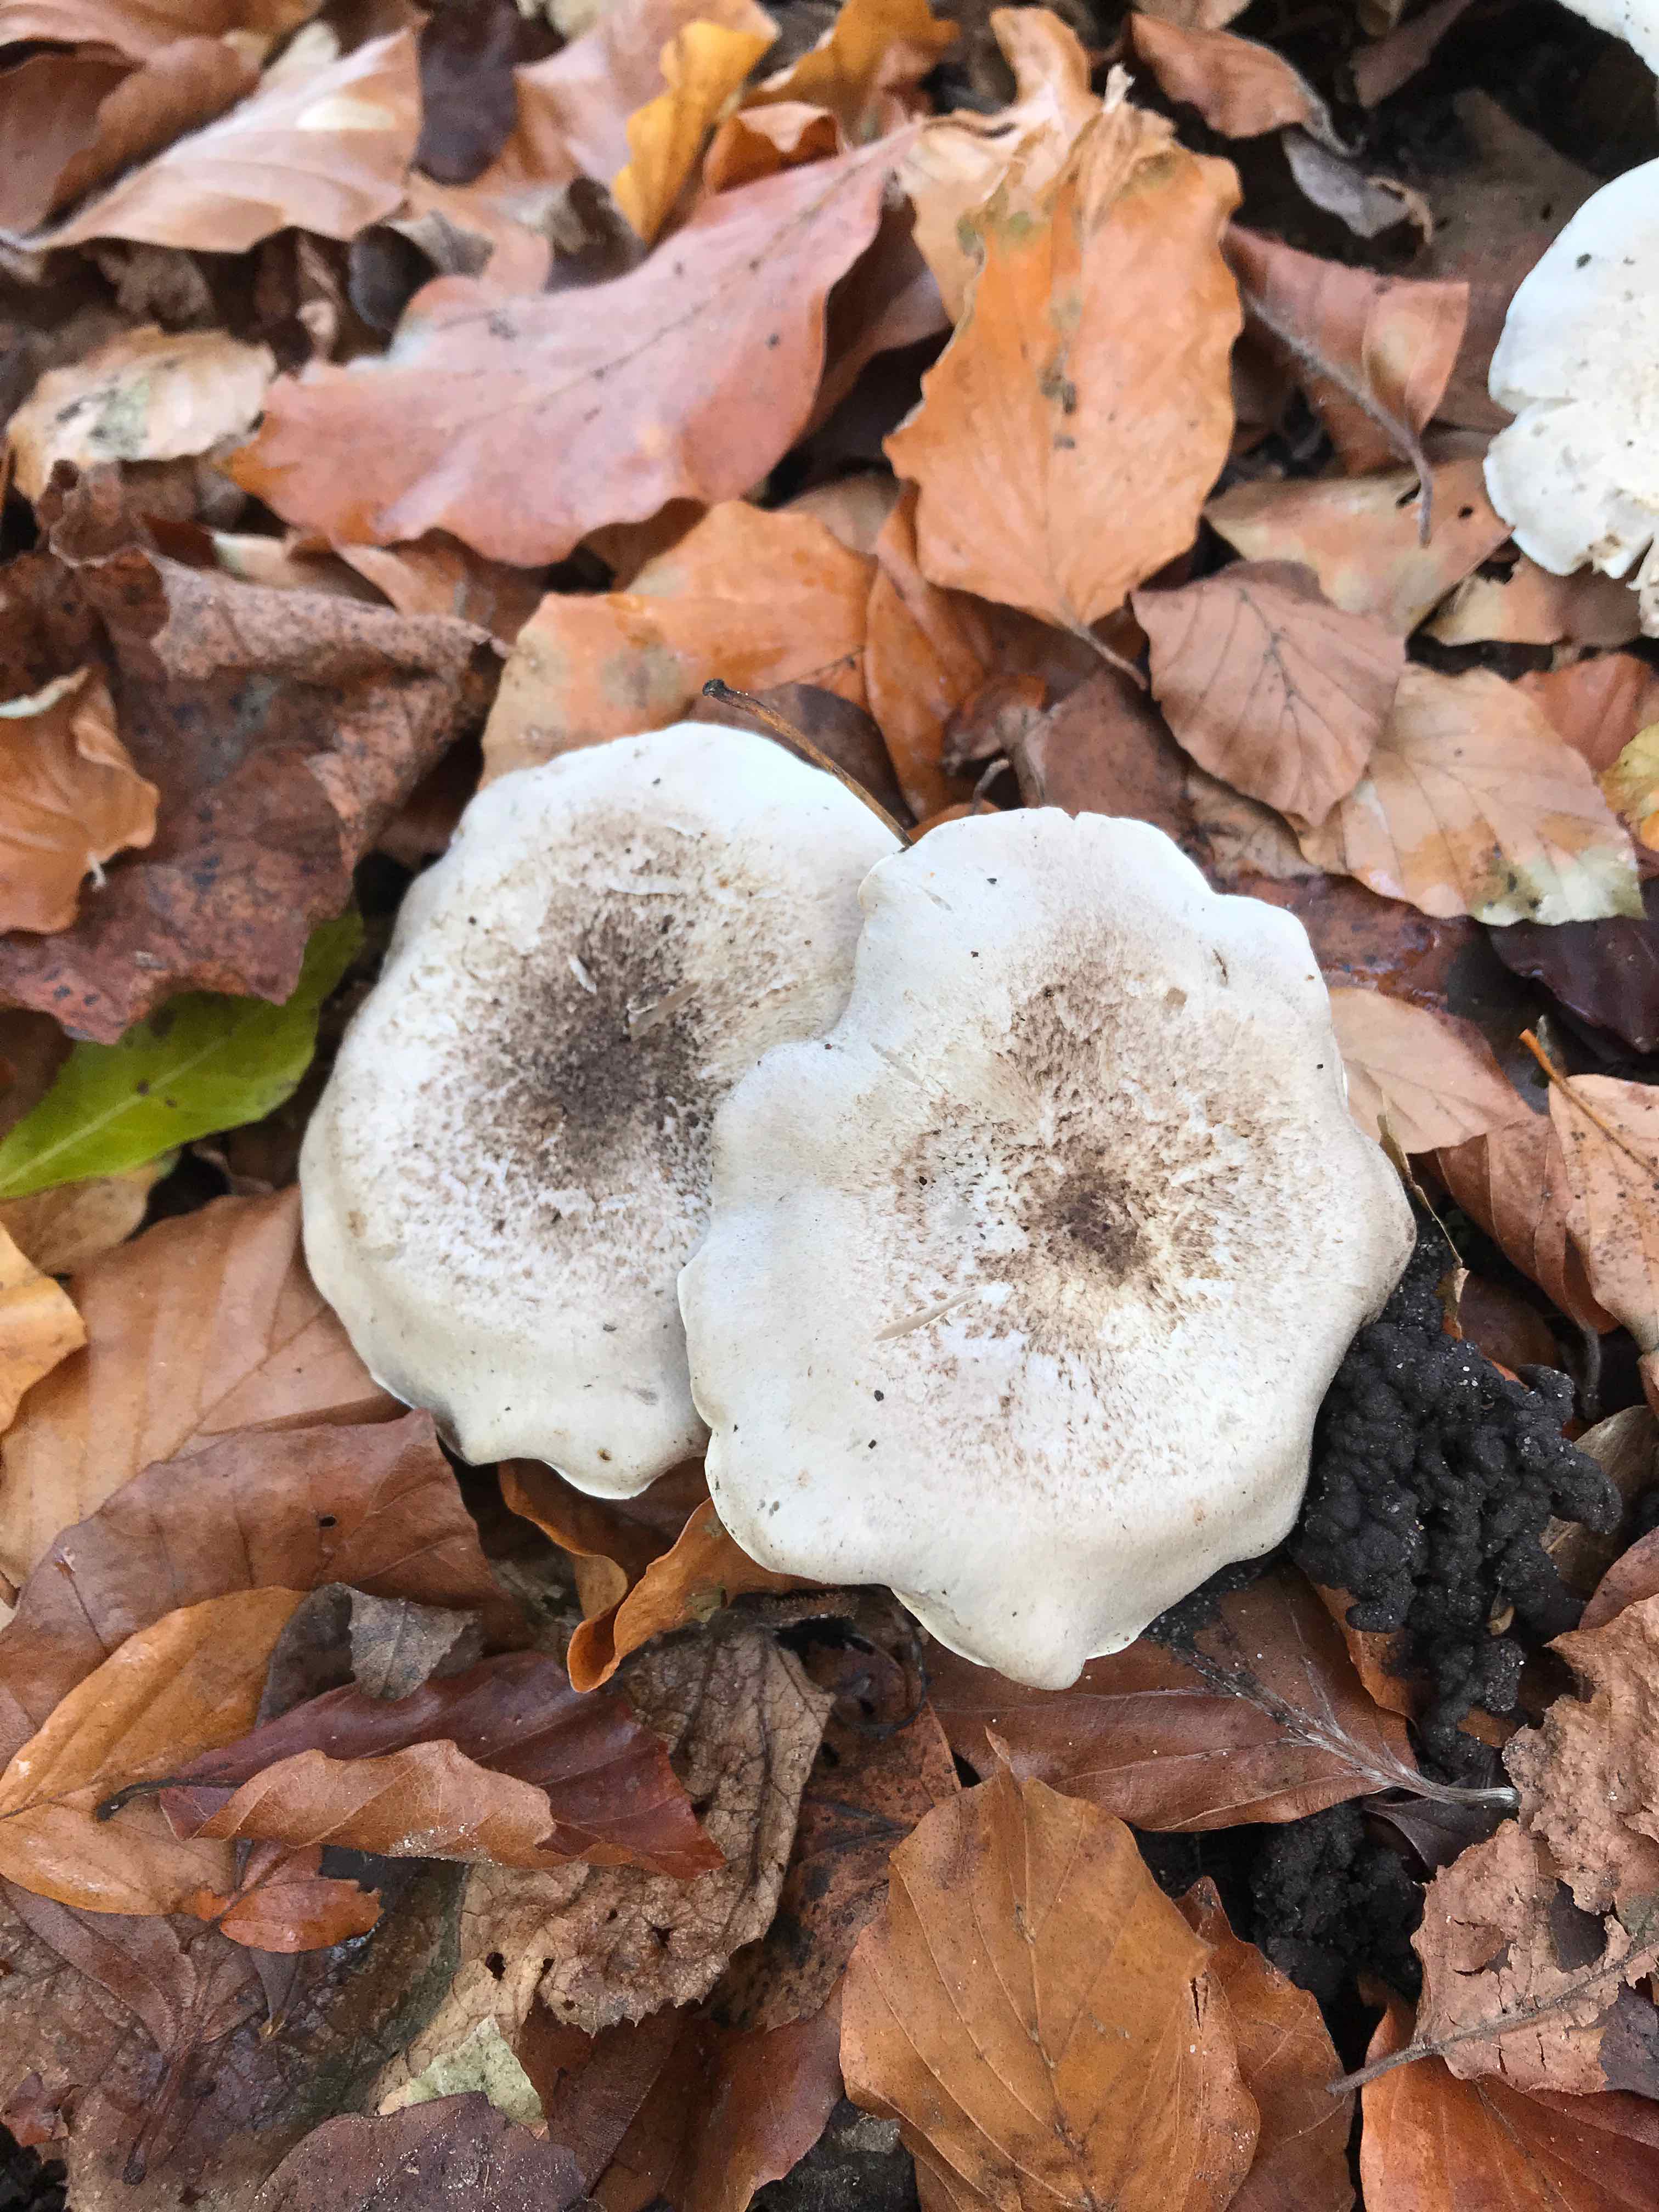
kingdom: Fungi
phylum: Basidiomycota
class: Agaricomycetes
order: Agaricales
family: Tricholomataceae
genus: Tricholoma
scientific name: Tricholoma scalpturatum
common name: gulplettet ridderhat
